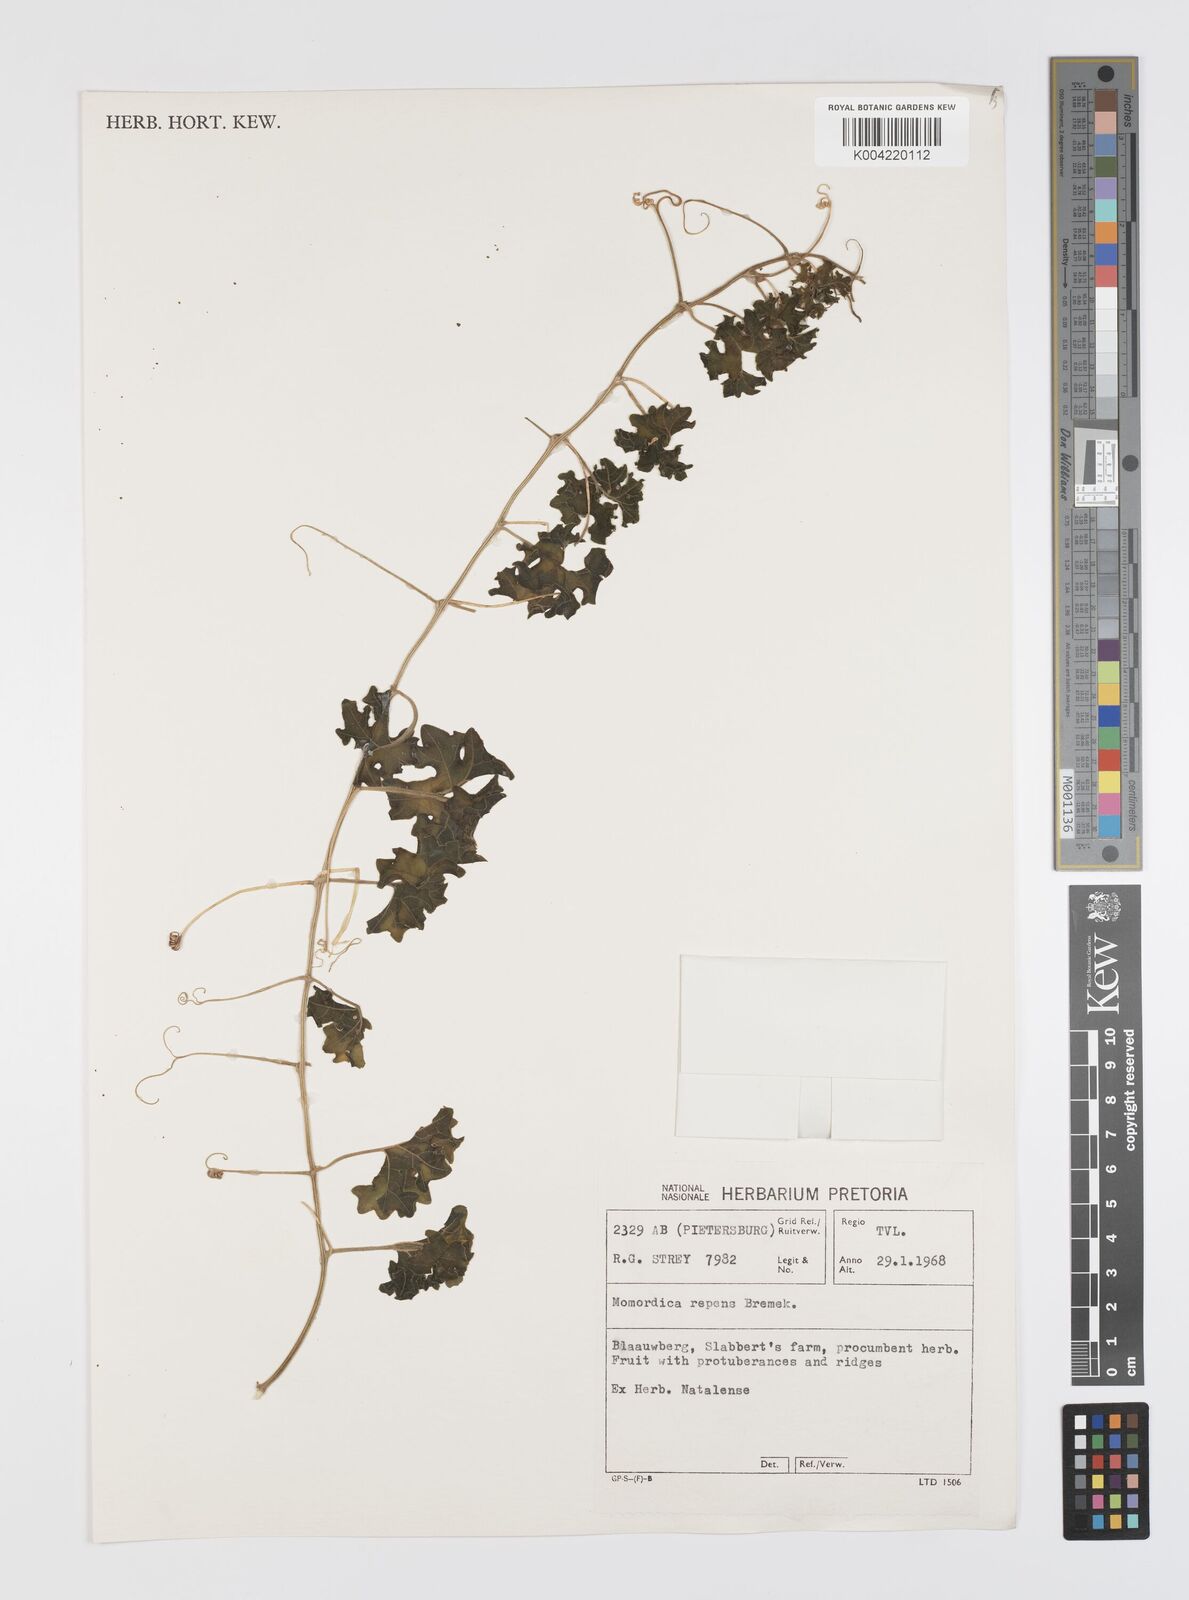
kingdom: Plantae
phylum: Tracheophyta
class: Magnoliopsida
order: Cucurbitales
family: Cucurbitaceae
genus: Momordica
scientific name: Momordica repens
